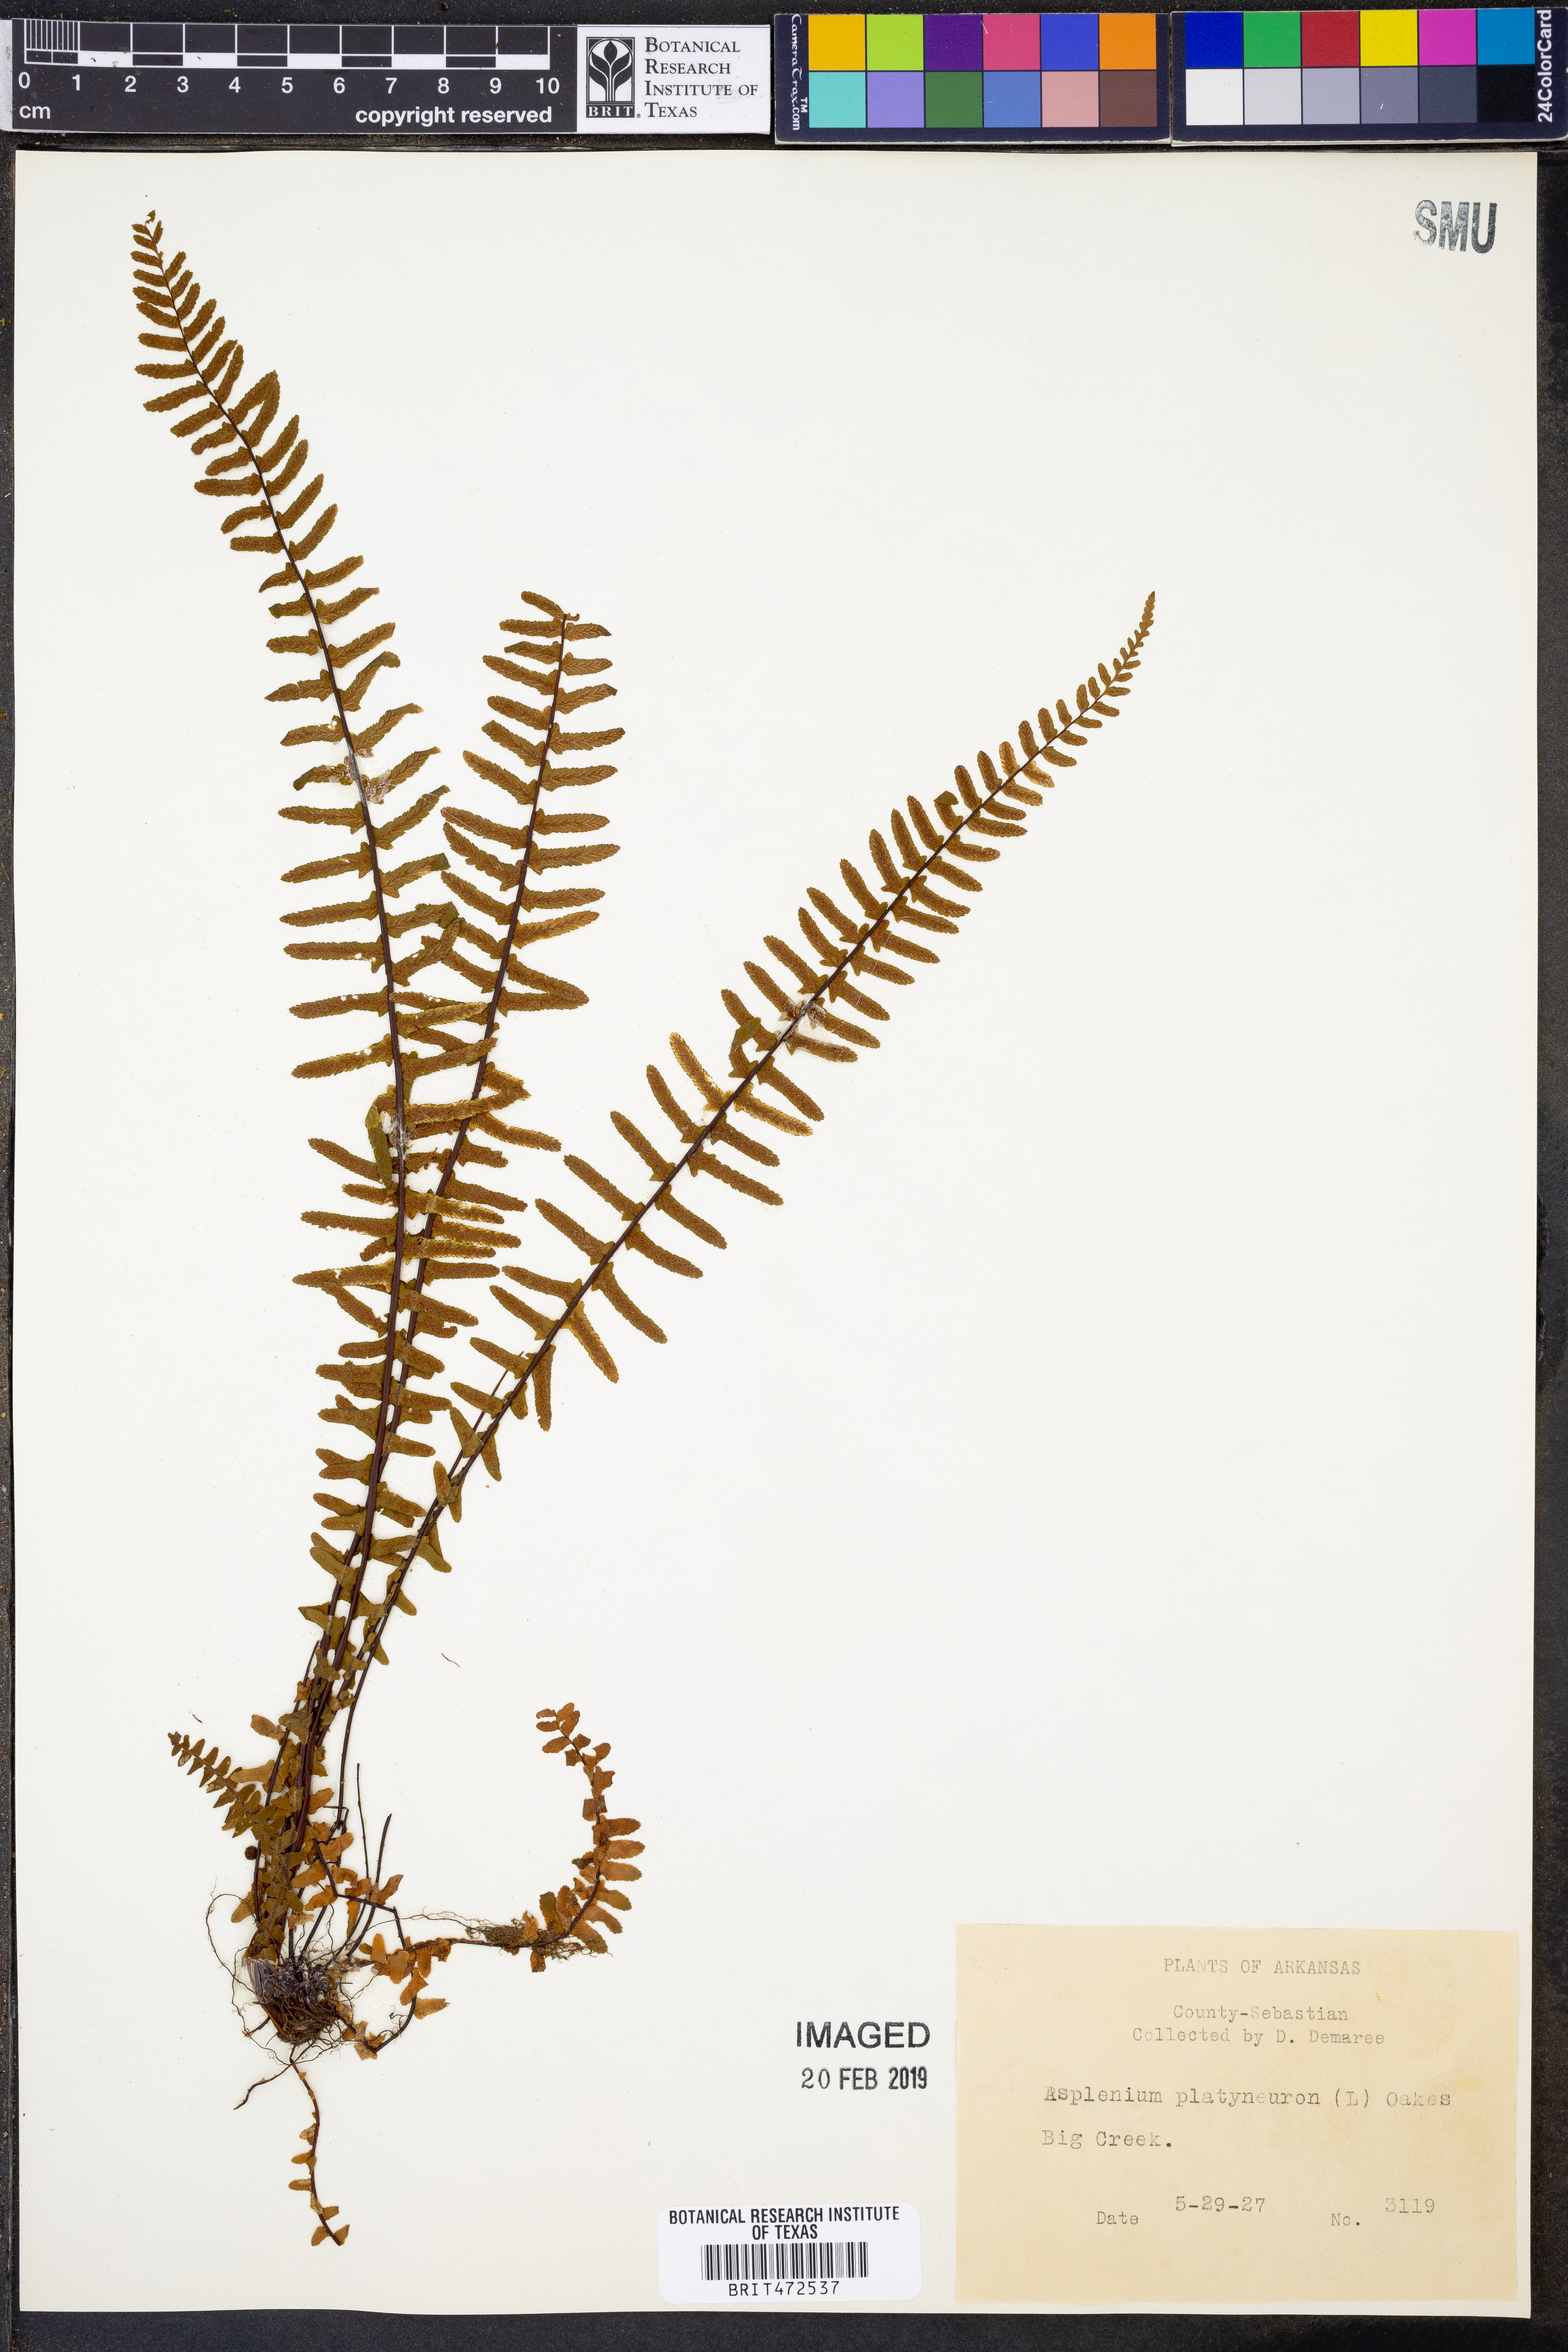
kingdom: Plantae
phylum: Tracheophyta
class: Polypodiopsida
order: Polypodiales
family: Aspleniaceae
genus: Asplenium
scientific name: Asplenium platyneuron
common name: Ebony spleenwort
